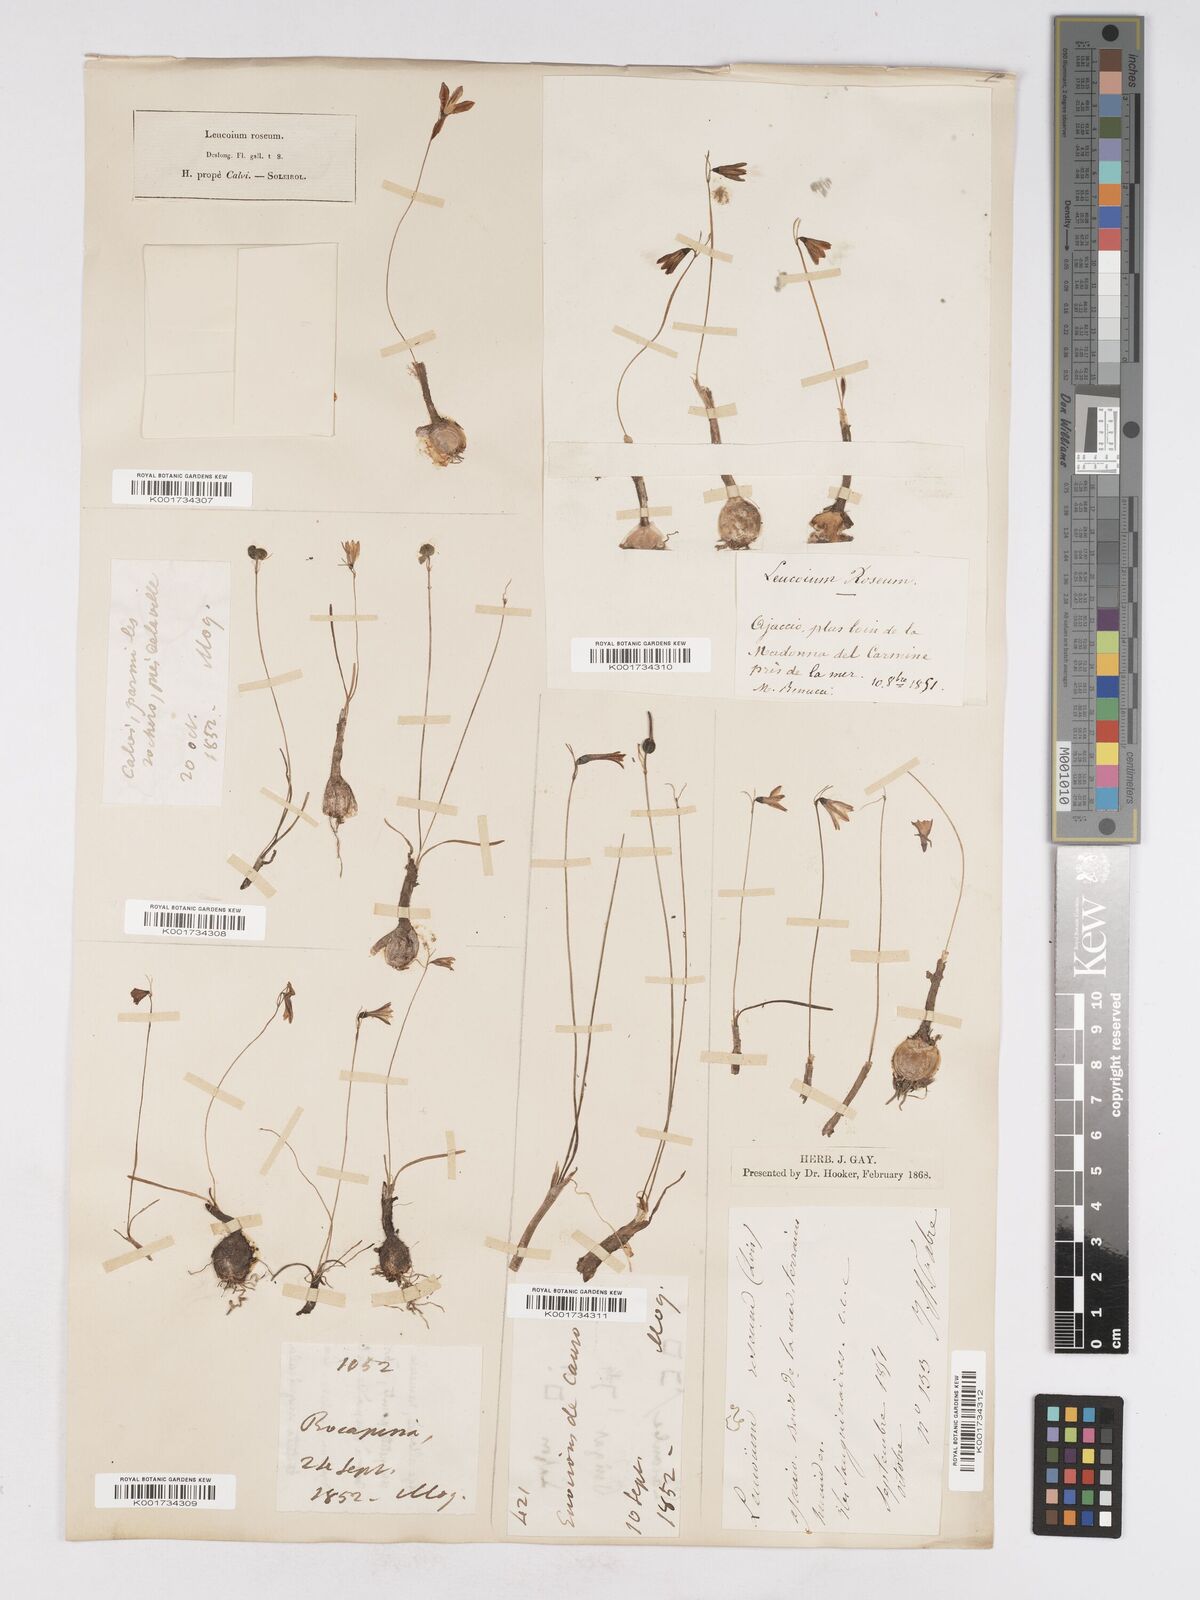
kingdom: Plantae
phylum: Tracheophyta
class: Liliopsida
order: Asparagales
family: Amaryllidaceae
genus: Acis
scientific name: Acis rosea
